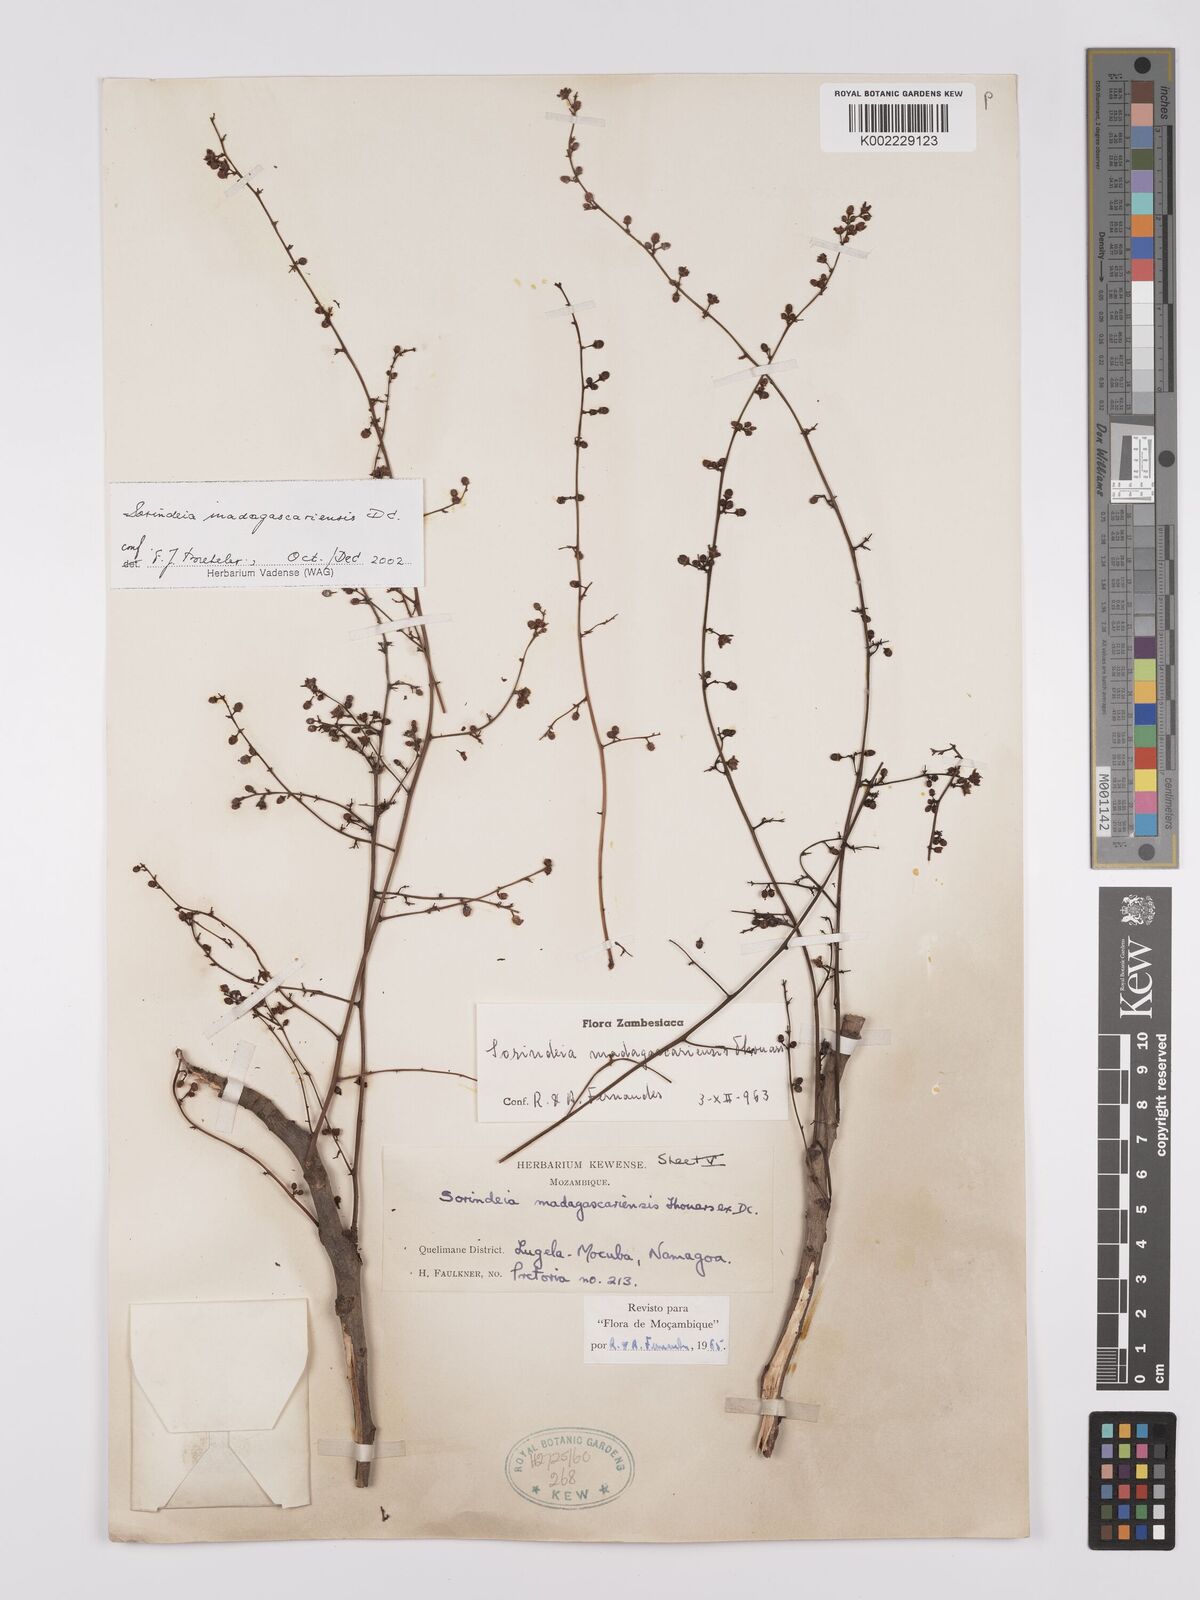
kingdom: Plantae
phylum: Tracheophyta
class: Magnoliopsida
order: Sapindales
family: Anacardiaceae
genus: Sorindeia
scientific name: Sorindeia madagascariensis
